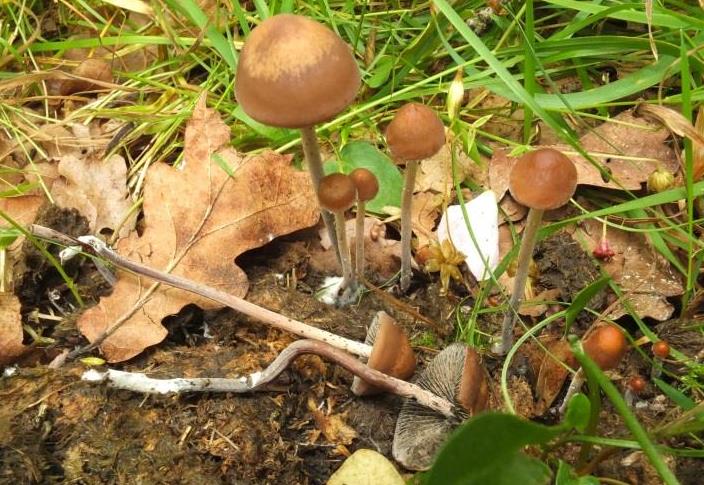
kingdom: Fungi
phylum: Basidiomycota
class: Agaricomycetes
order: Agaricales
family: Bolbitiaceae
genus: Panaeolus
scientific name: Panaeolus acuminatus
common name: høj glanshat
